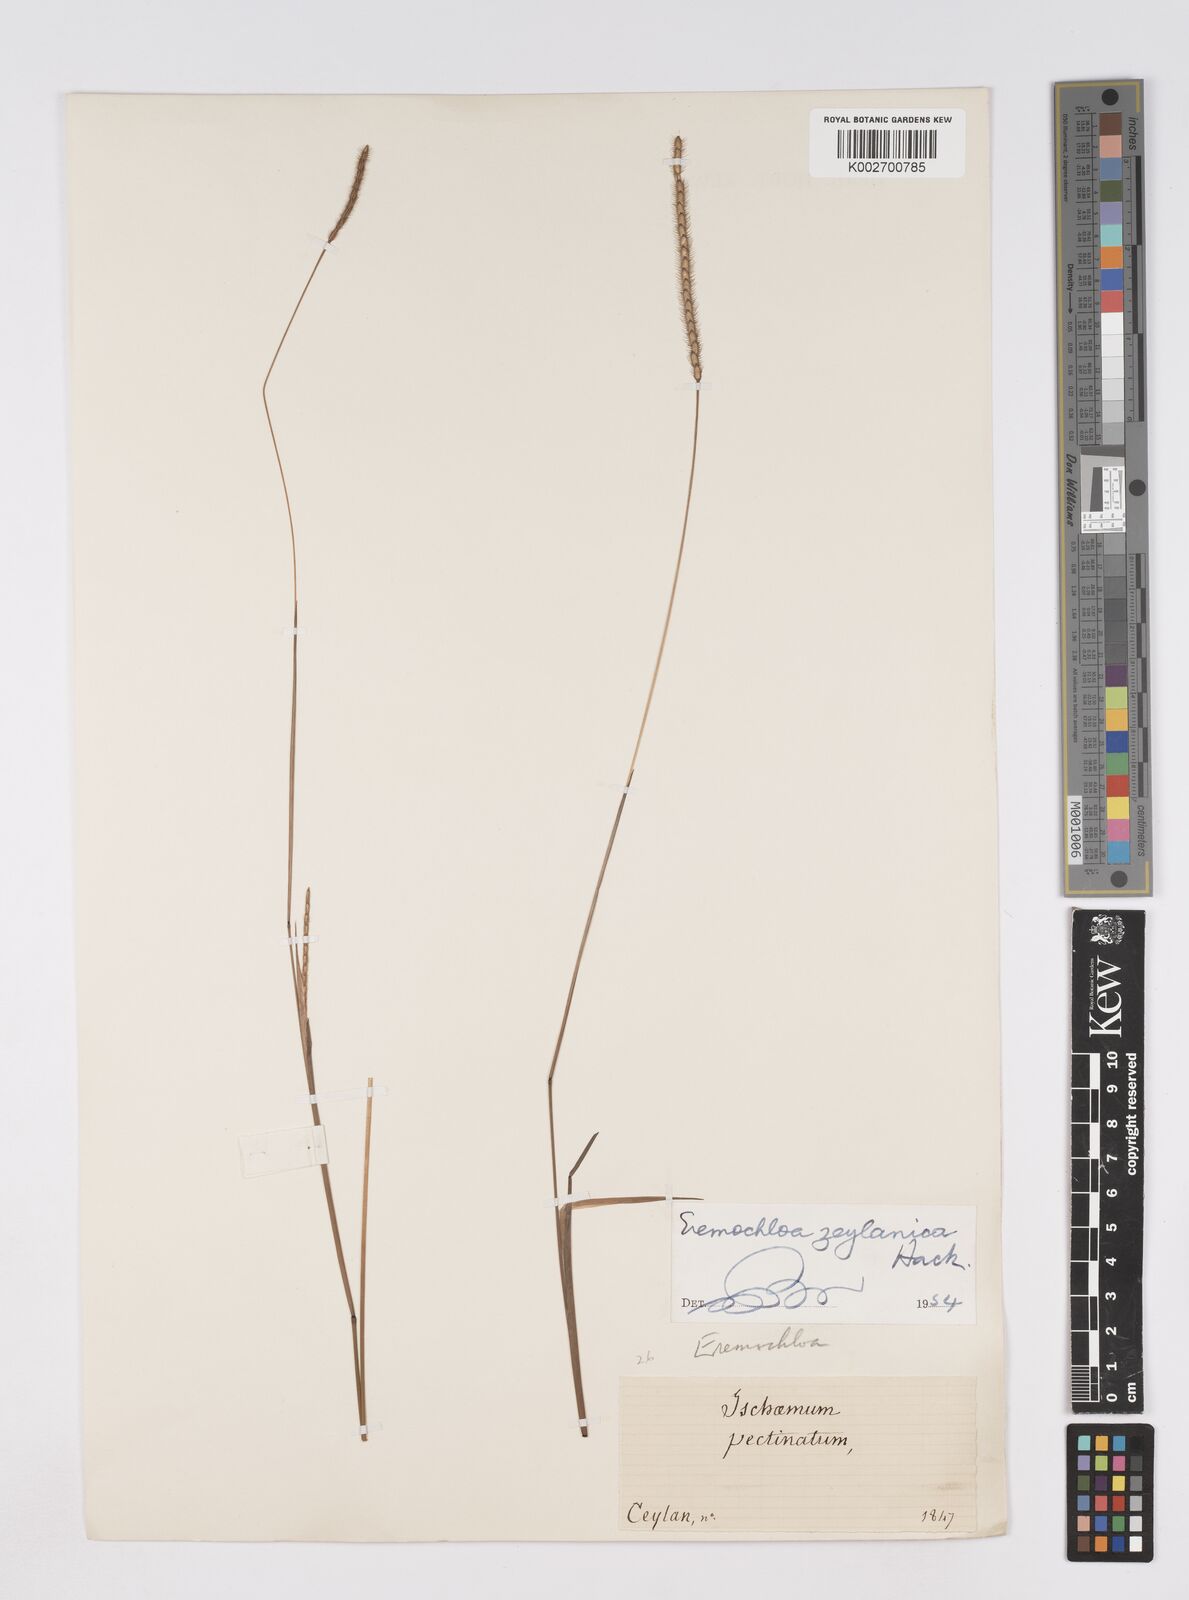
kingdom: Plantae
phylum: Tracheophyta
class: Liliopsida
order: Poales
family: Poaceae
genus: Eremochloa
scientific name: Eremochloa zeylanica
